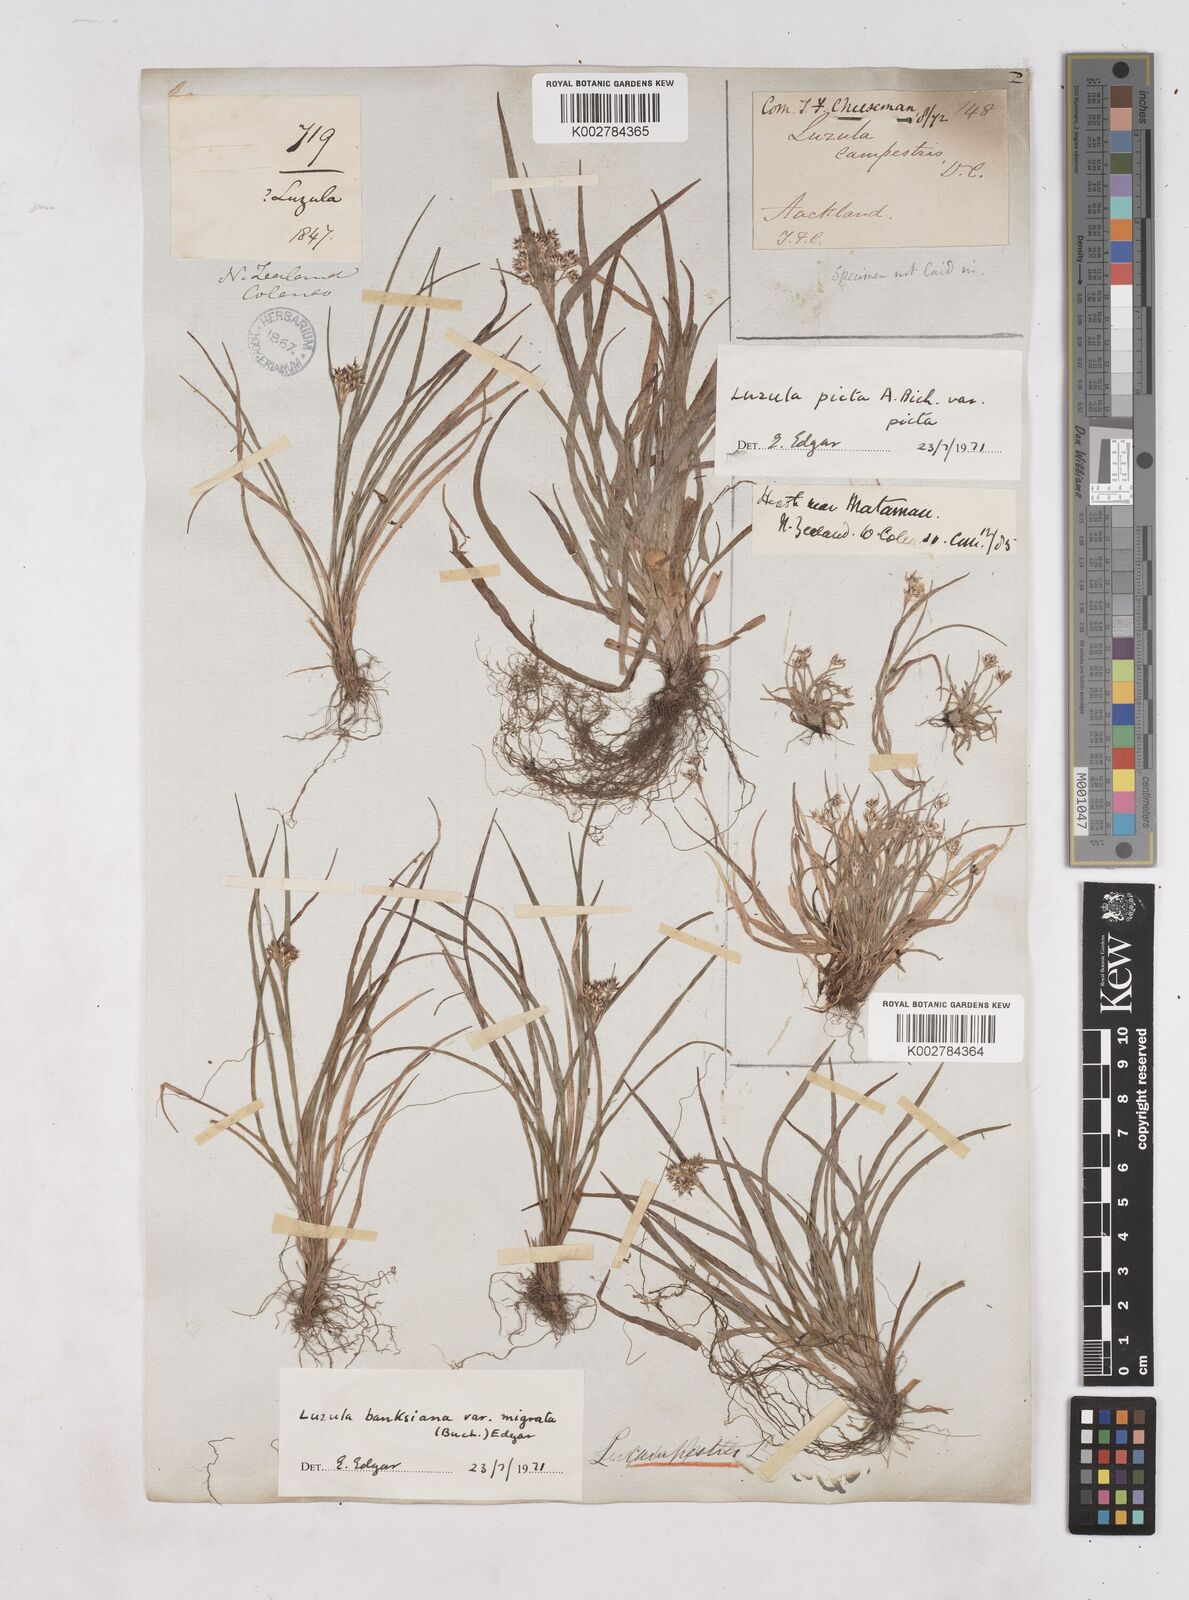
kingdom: Plantae
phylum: Tracheophyta
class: Liliopsida
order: Poales
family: Juncaceae
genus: Luzula
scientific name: Luzula
